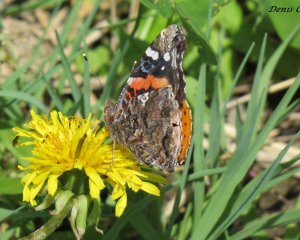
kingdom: Animalia
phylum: Arthropoda
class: Insecta
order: Lepidoptera
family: Nymphalidae
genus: Vanessa
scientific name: Vanessa atalanta
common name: Red Admiral
